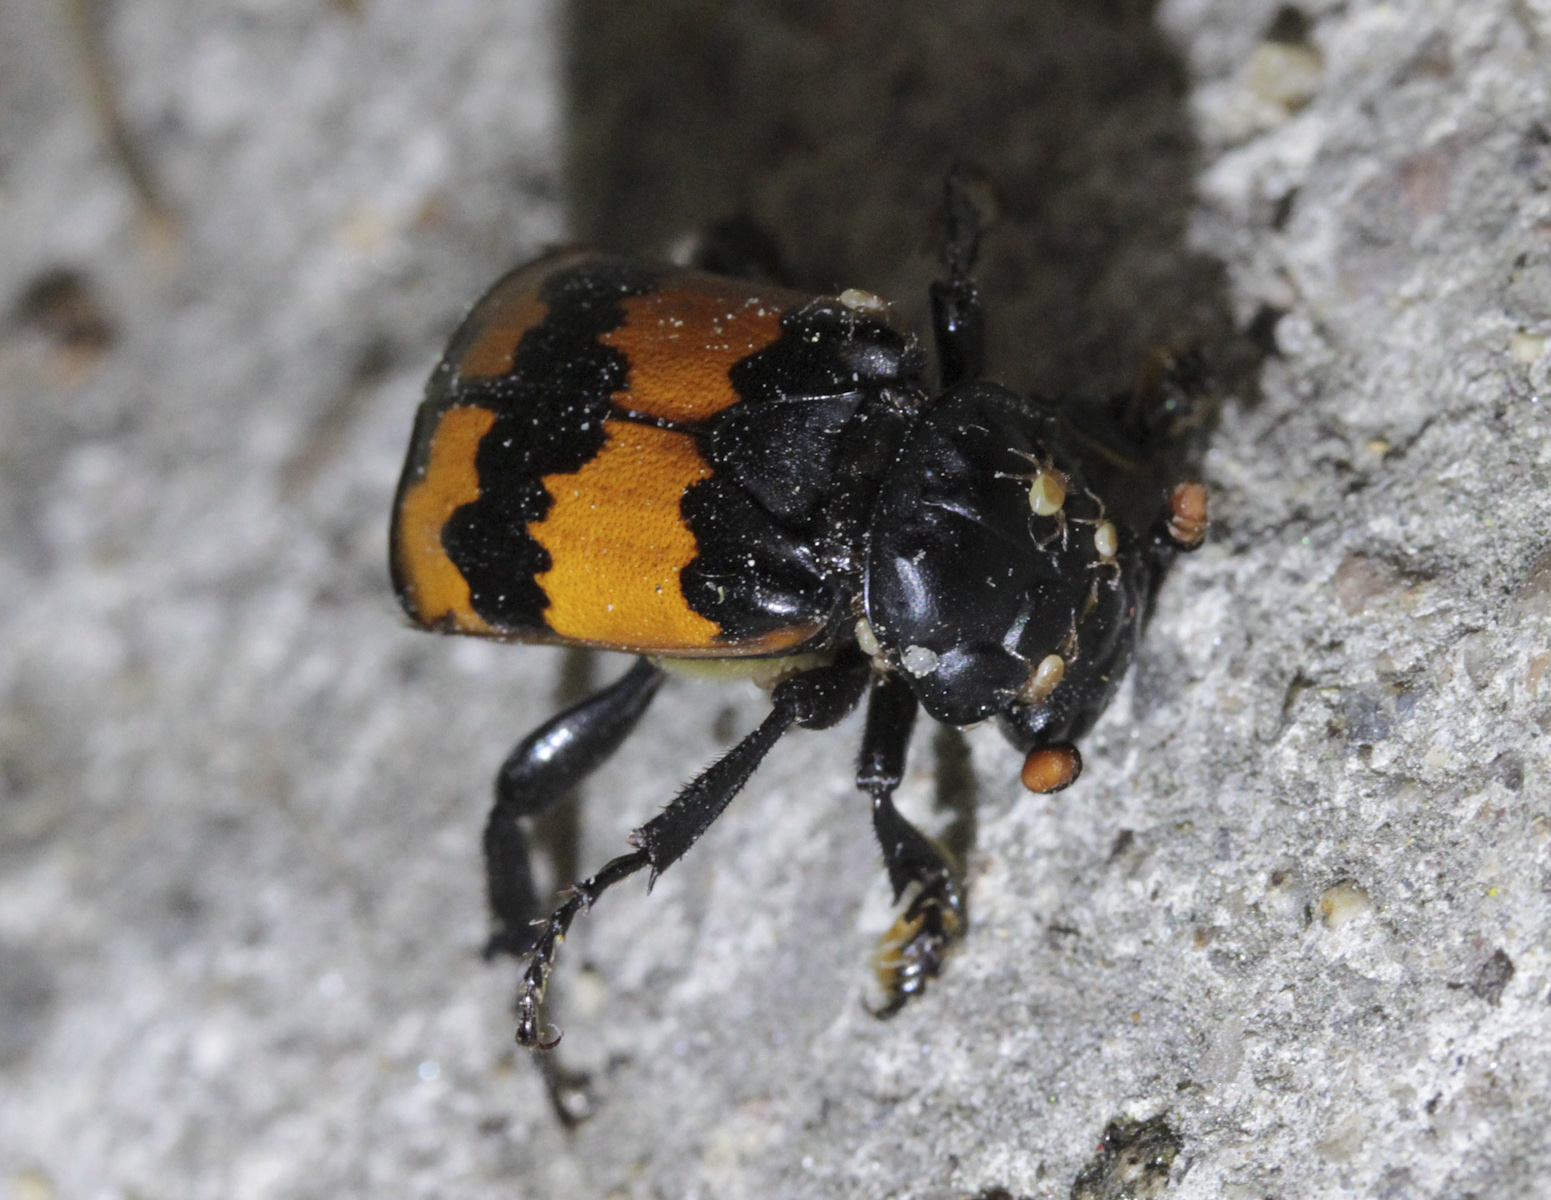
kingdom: Animalia
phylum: Arthropoda
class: Insecta
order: Coleoptera
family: Staphylinidae
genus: Nicrophorus
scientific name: Nicrophorus investigator
